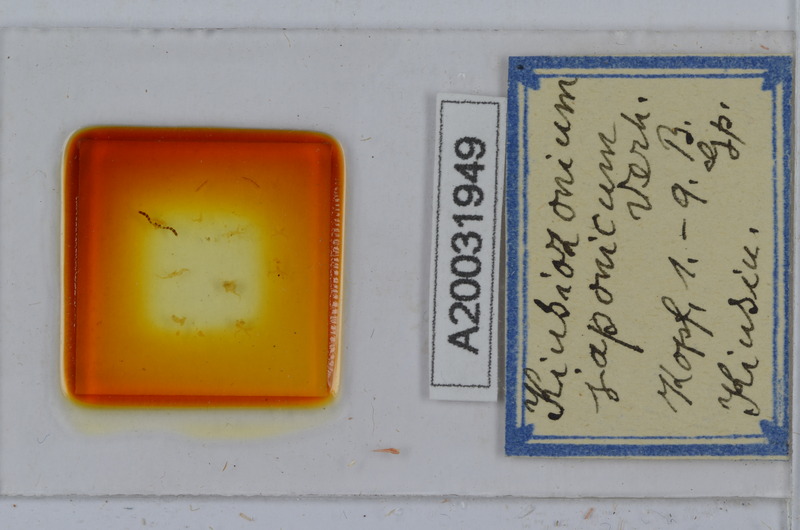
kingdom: Animalia
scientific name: Animalia
